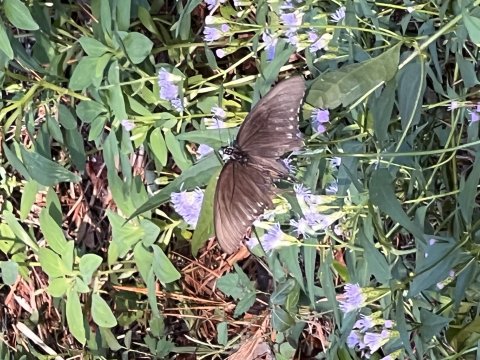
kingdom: Animalia
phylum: Arthropoda
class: Insecta
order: Lepidoptera
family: Papilionidae
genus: Battus
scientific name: Battus philenor
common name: Pipevine Swallowtail
